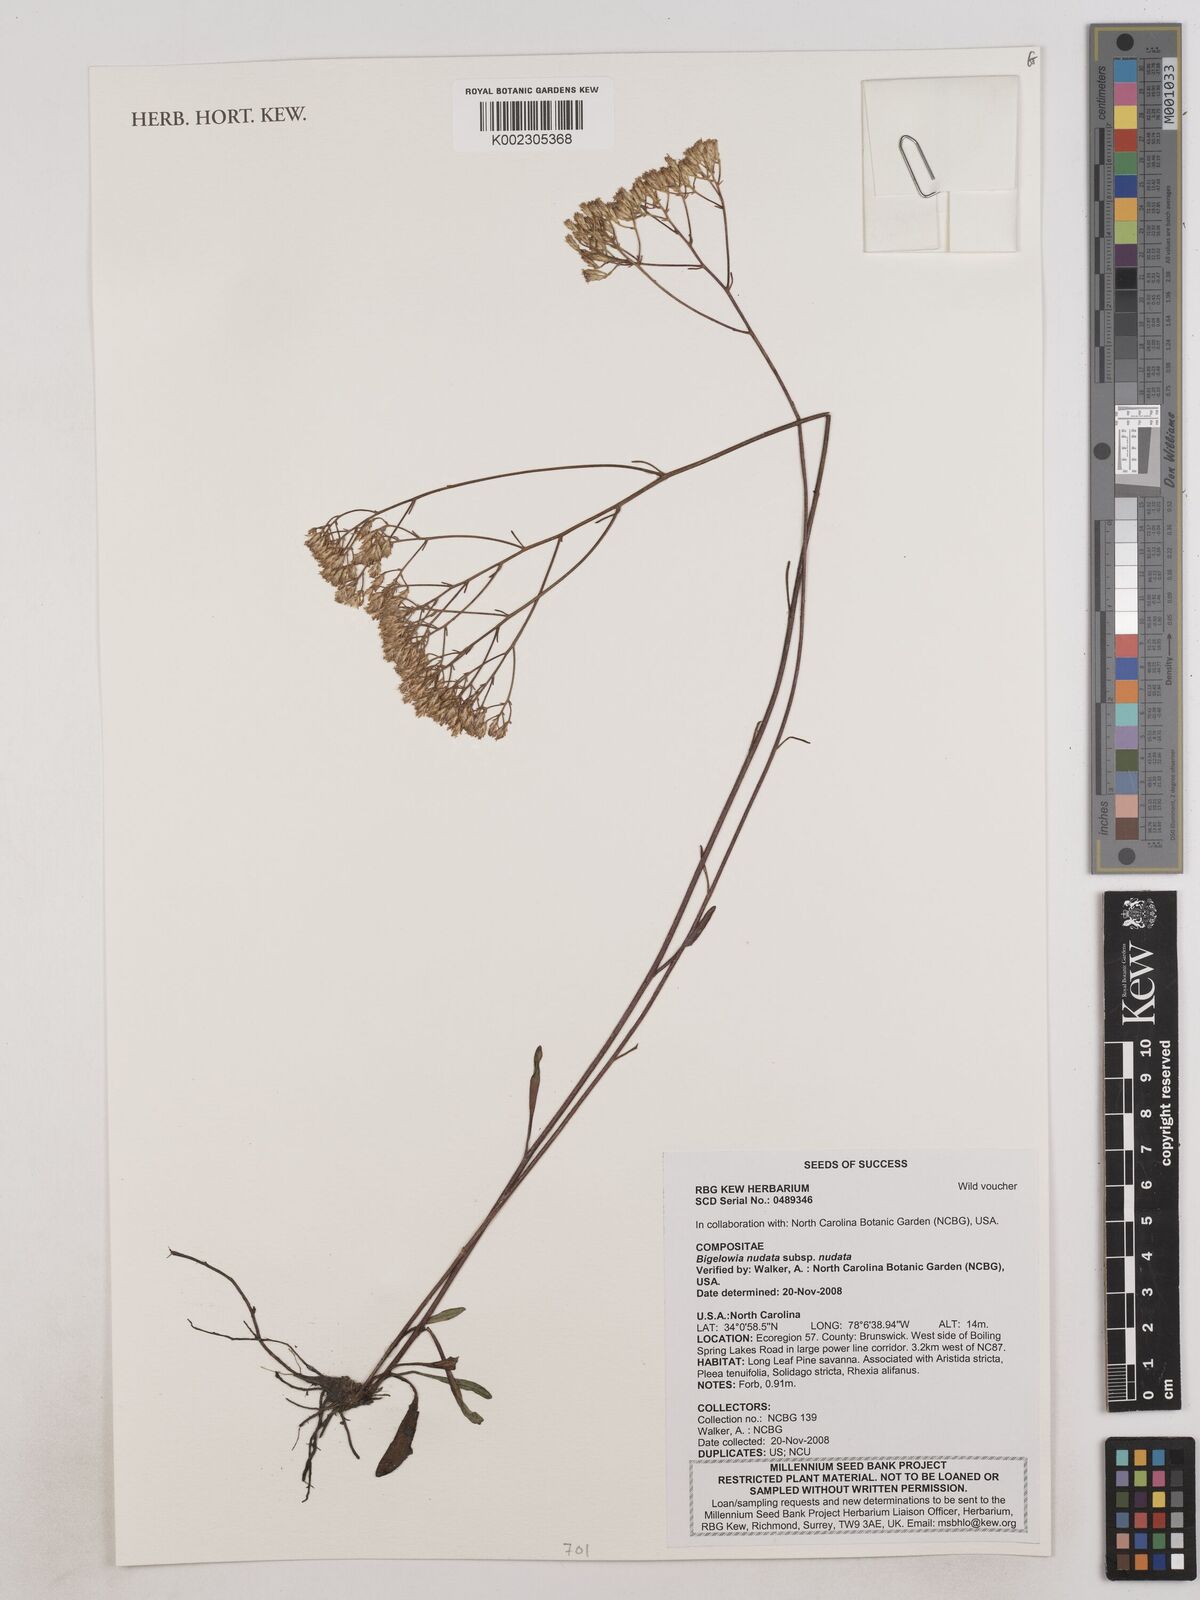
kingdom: Plantae
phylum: Tracheophyta
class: Magnoliopsida
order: Asterales
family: Asteraceae
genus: Bigelowia
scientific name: Bigelowia nudata
